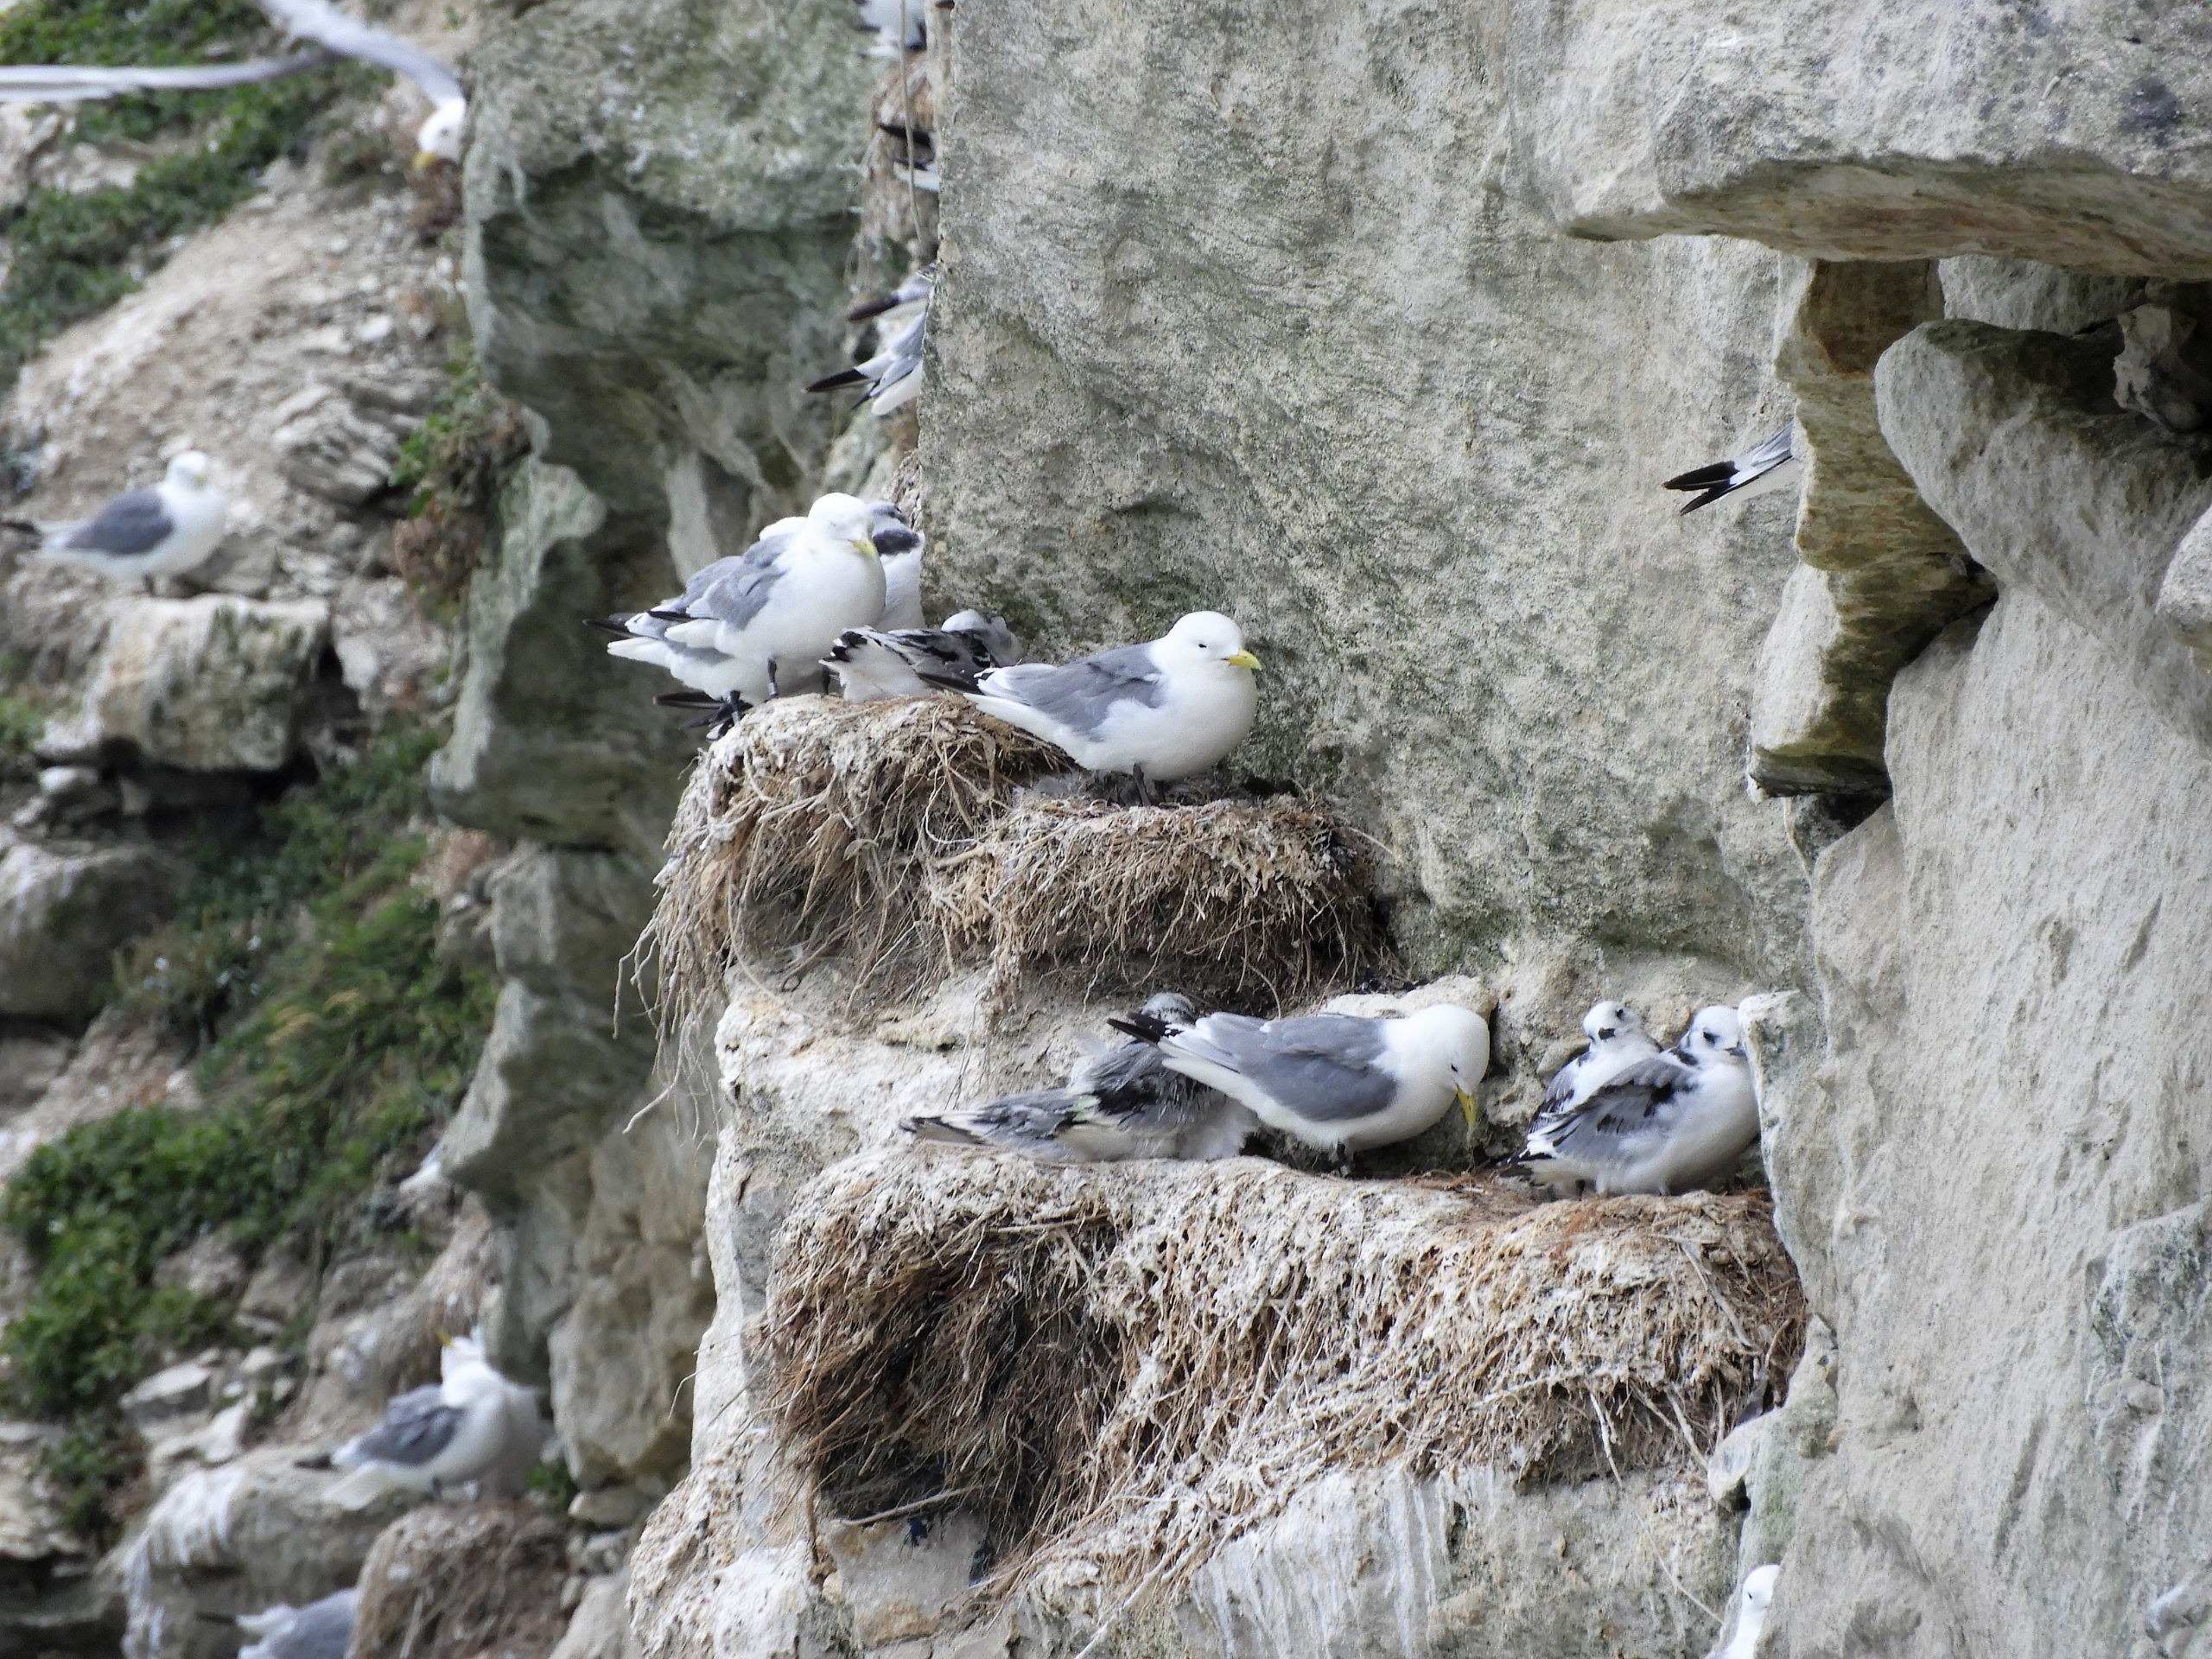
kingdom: Animalia
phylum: Chordata
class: Aves
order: Charadriiformes
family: Laridae
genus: Rissa
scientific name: Rissa tridactyla
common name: Ride
